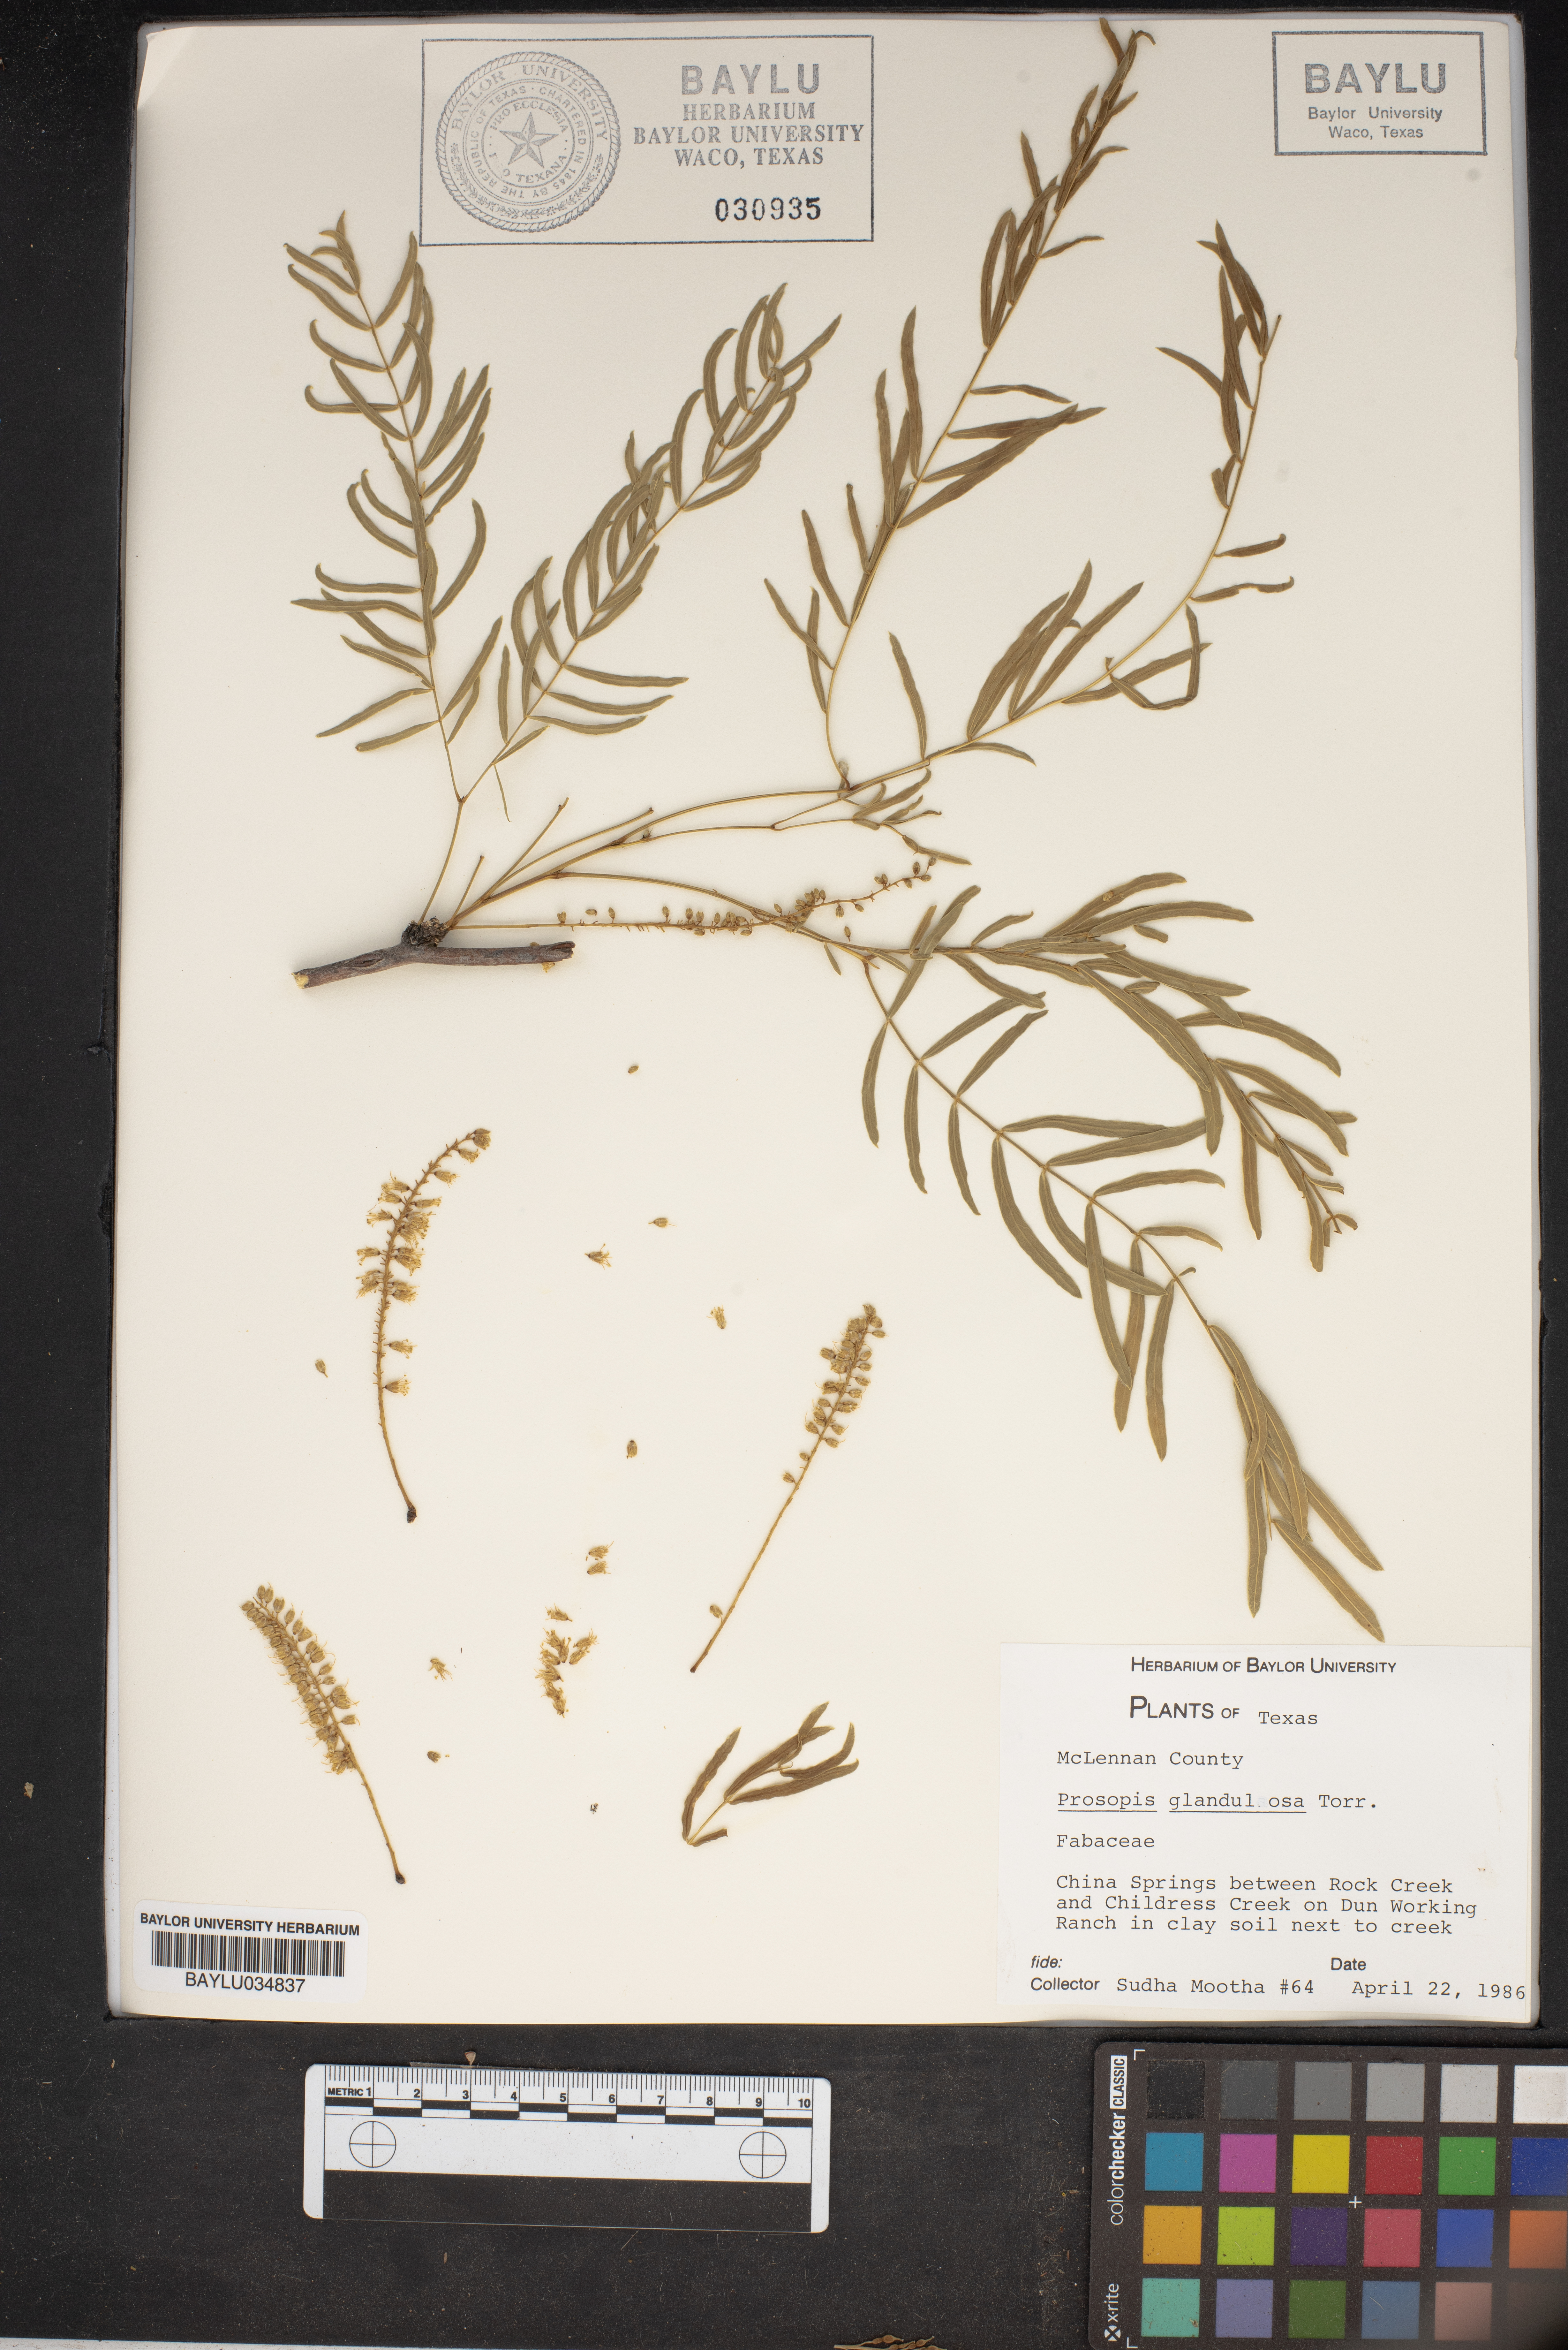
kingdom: Plantae
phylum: Tracheophyta
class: Magnoliopsida
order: Fabales
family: Fabaceae
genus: Prosopis
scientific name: Prosopis glandulosa
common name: Honey mesquite
